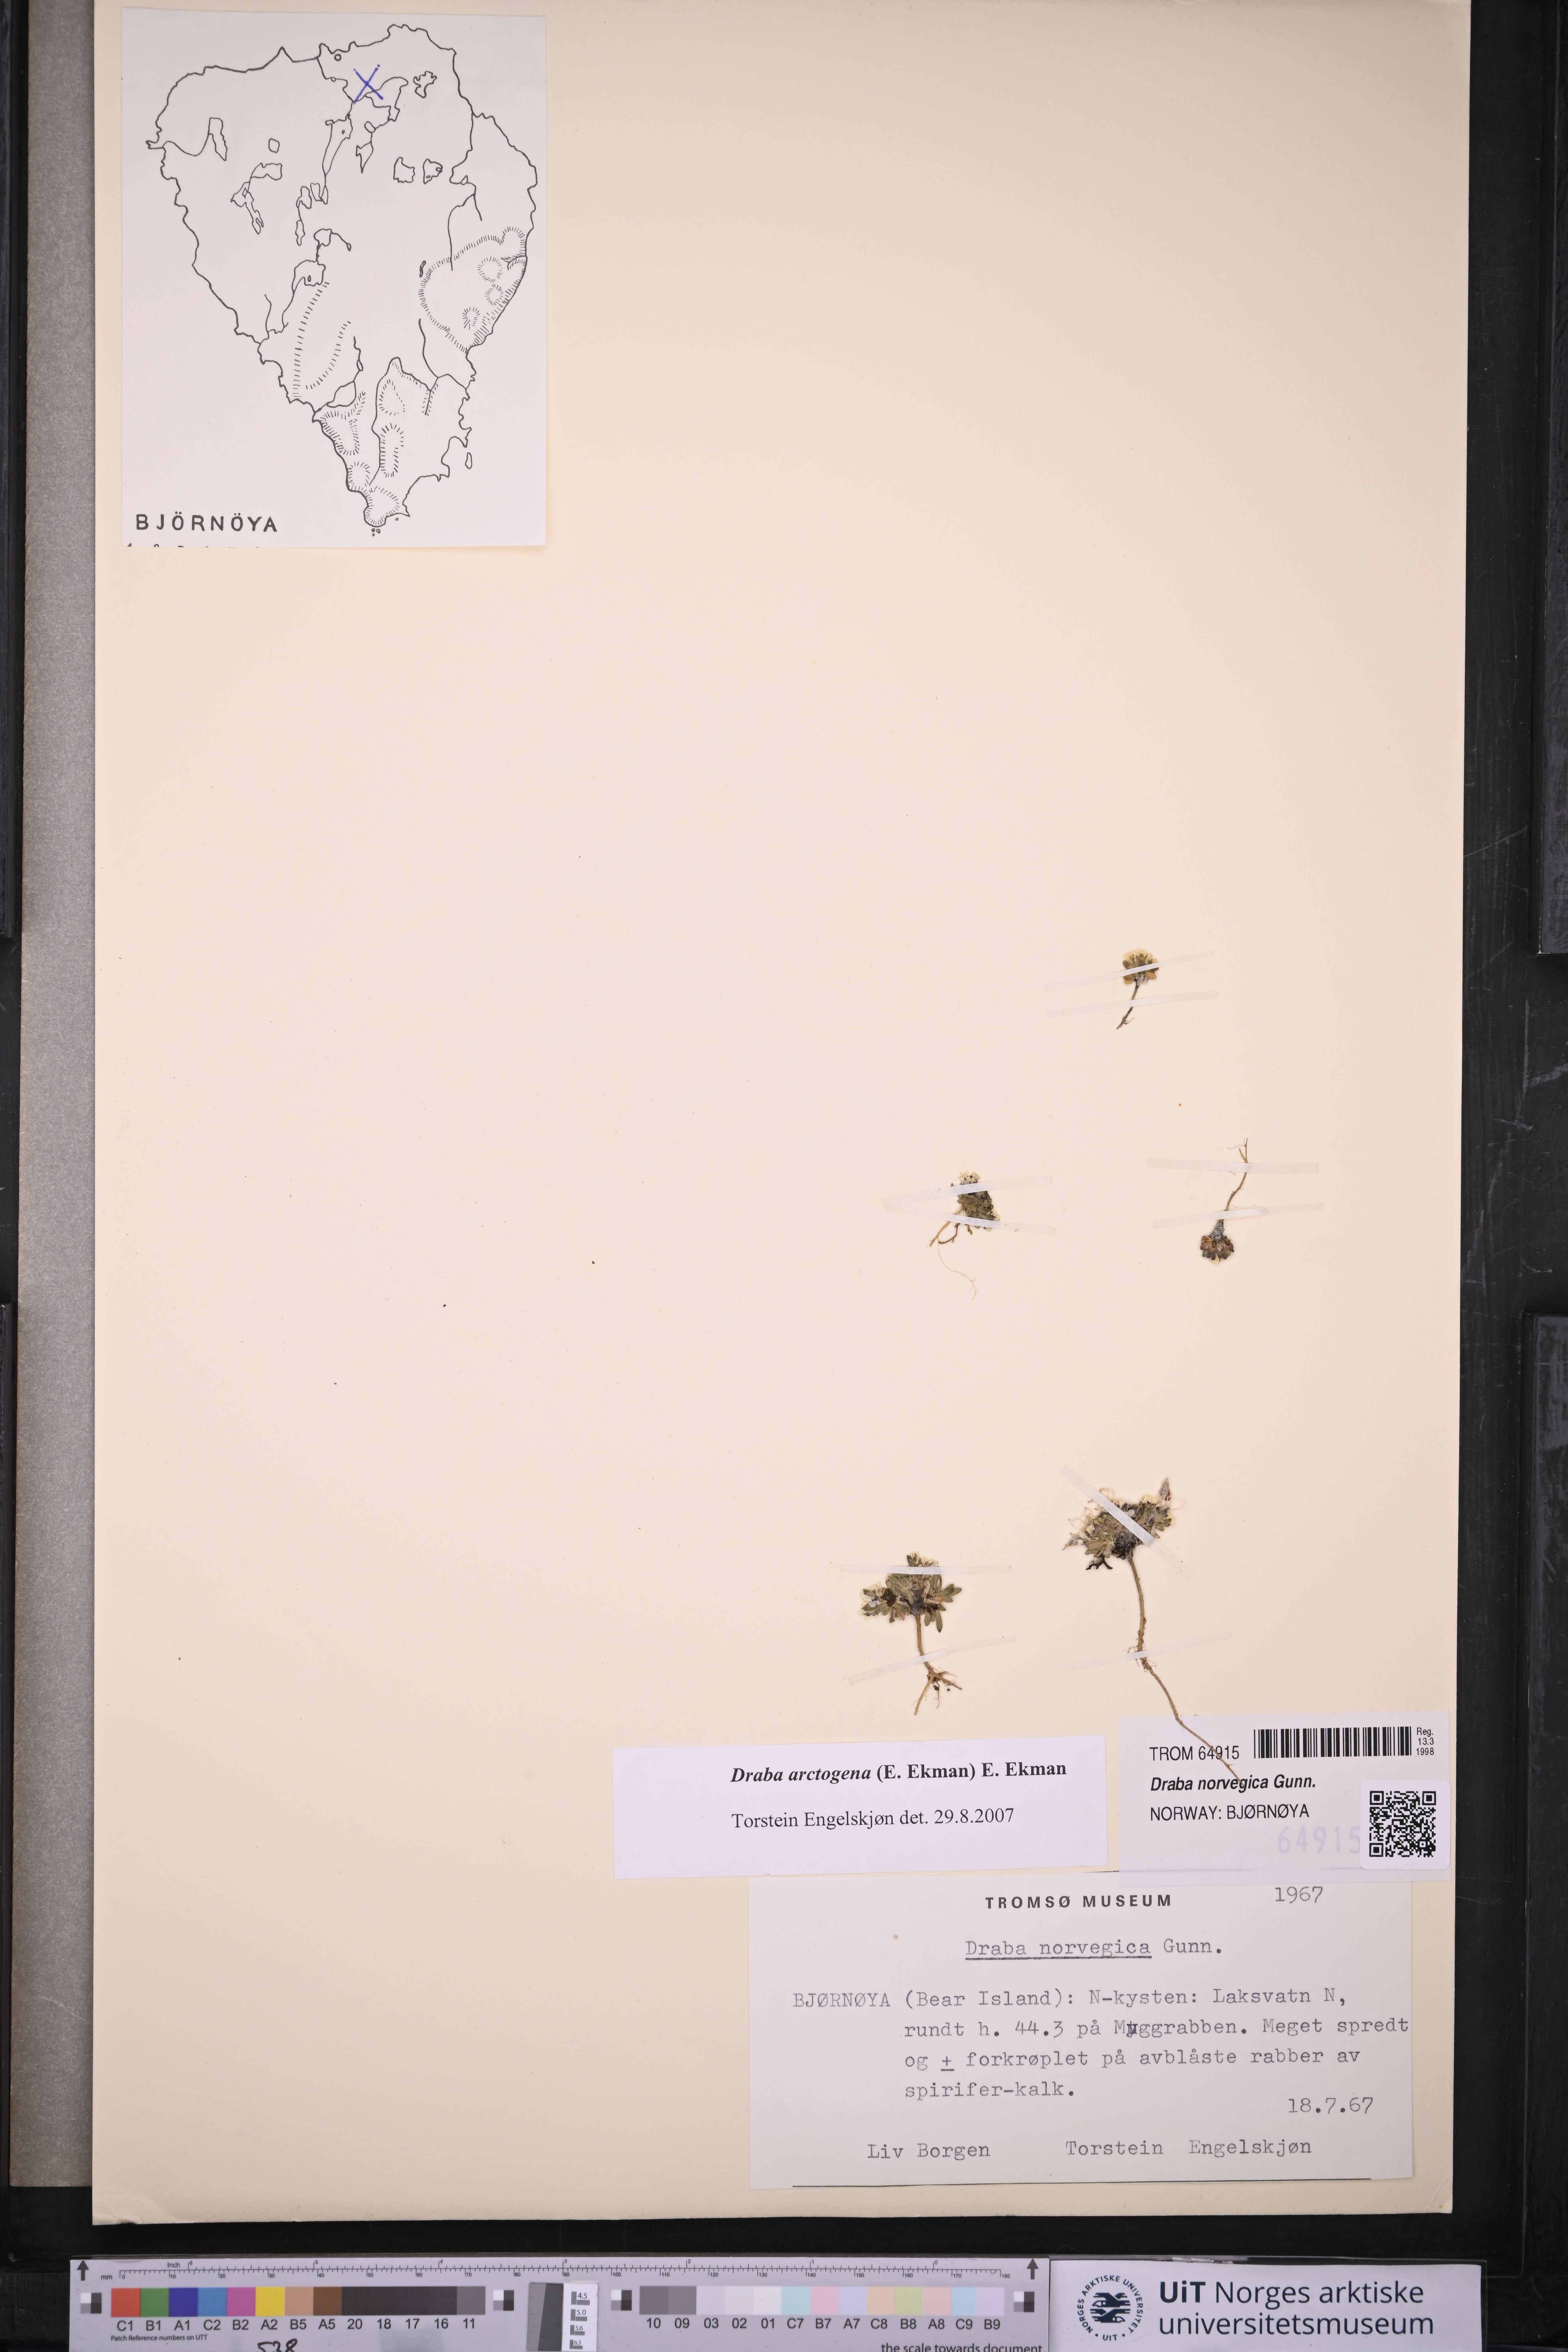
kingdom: Plantae
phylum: Tracheophyta
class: Magnoliopsida
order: Brassicales
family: Brassicaceae
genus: Draba
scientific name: Draba norvegica
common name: Rock whitlowgrass
